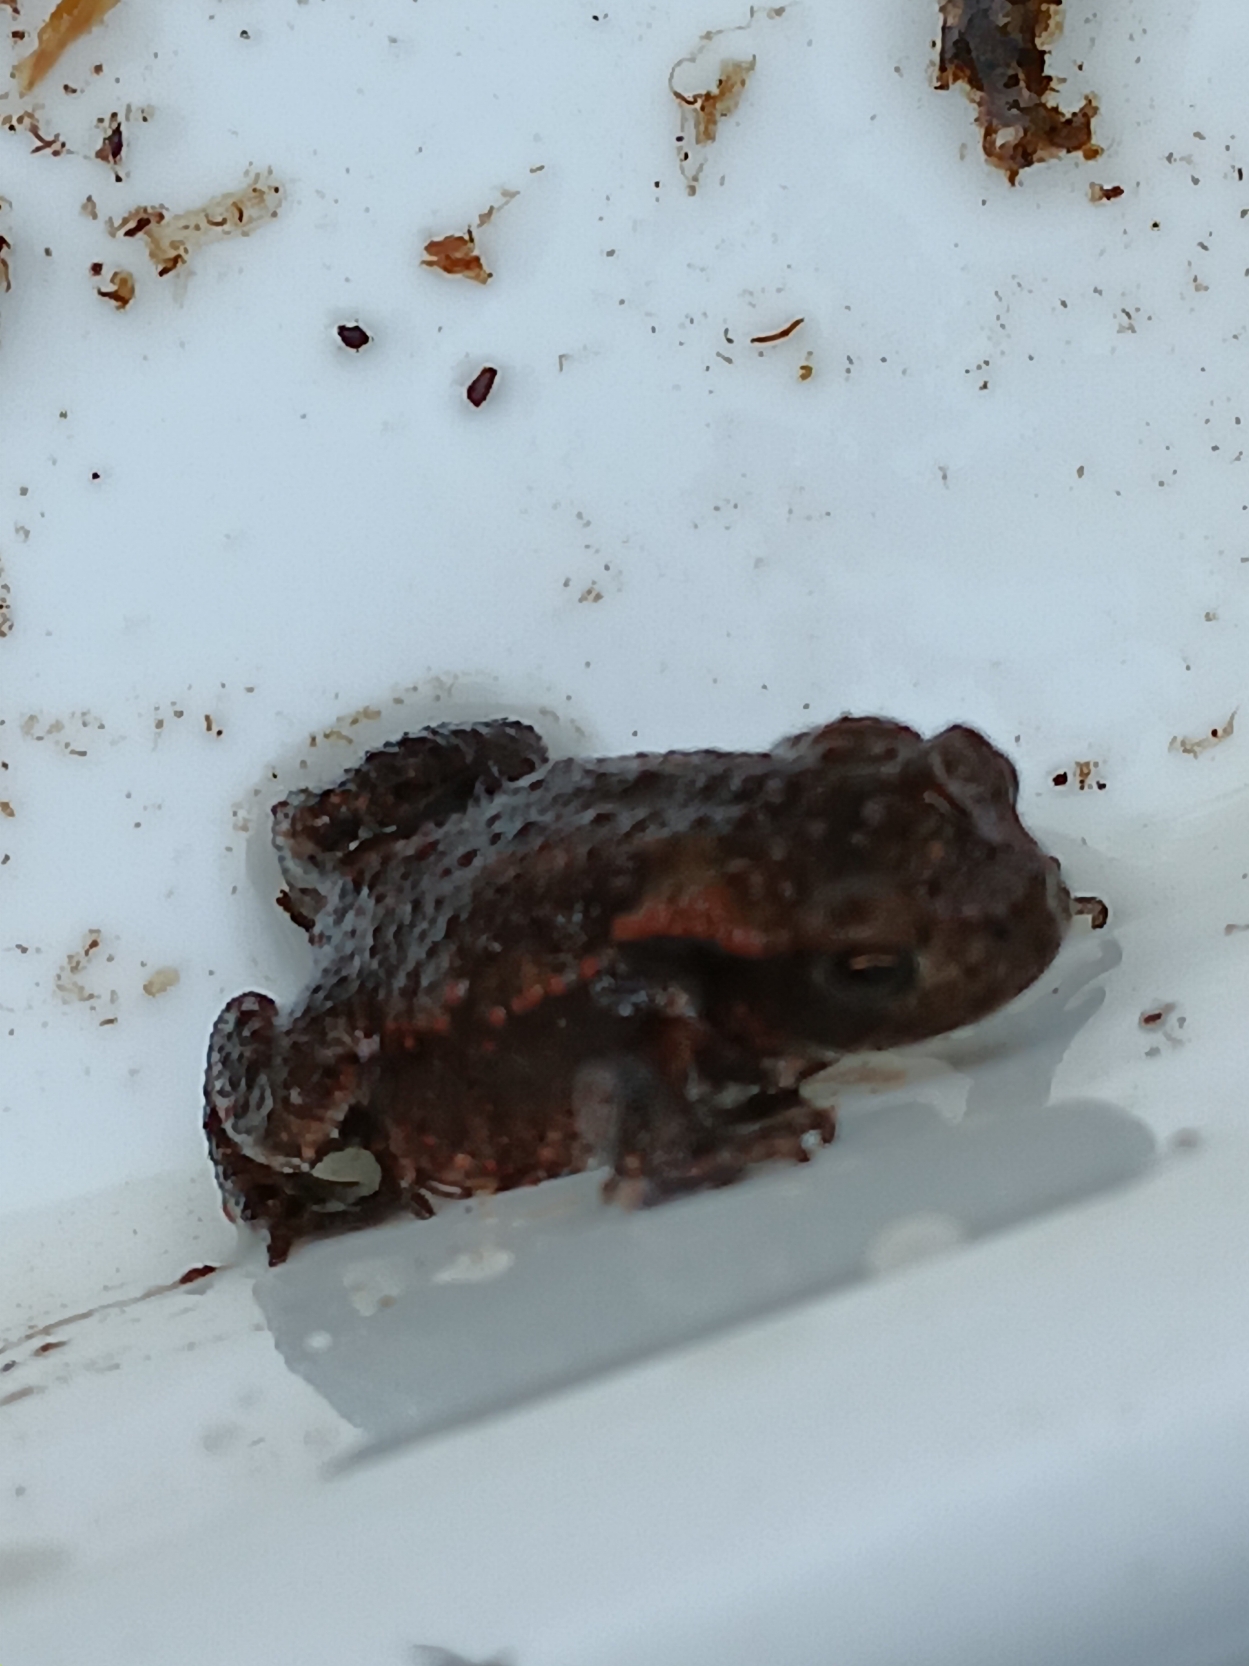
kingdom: Animalia
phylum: Chordata
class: Amphibia
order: Anura
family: Bufonidae
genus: Bufo
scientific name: Bufo bufo
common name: Skrubtudse
